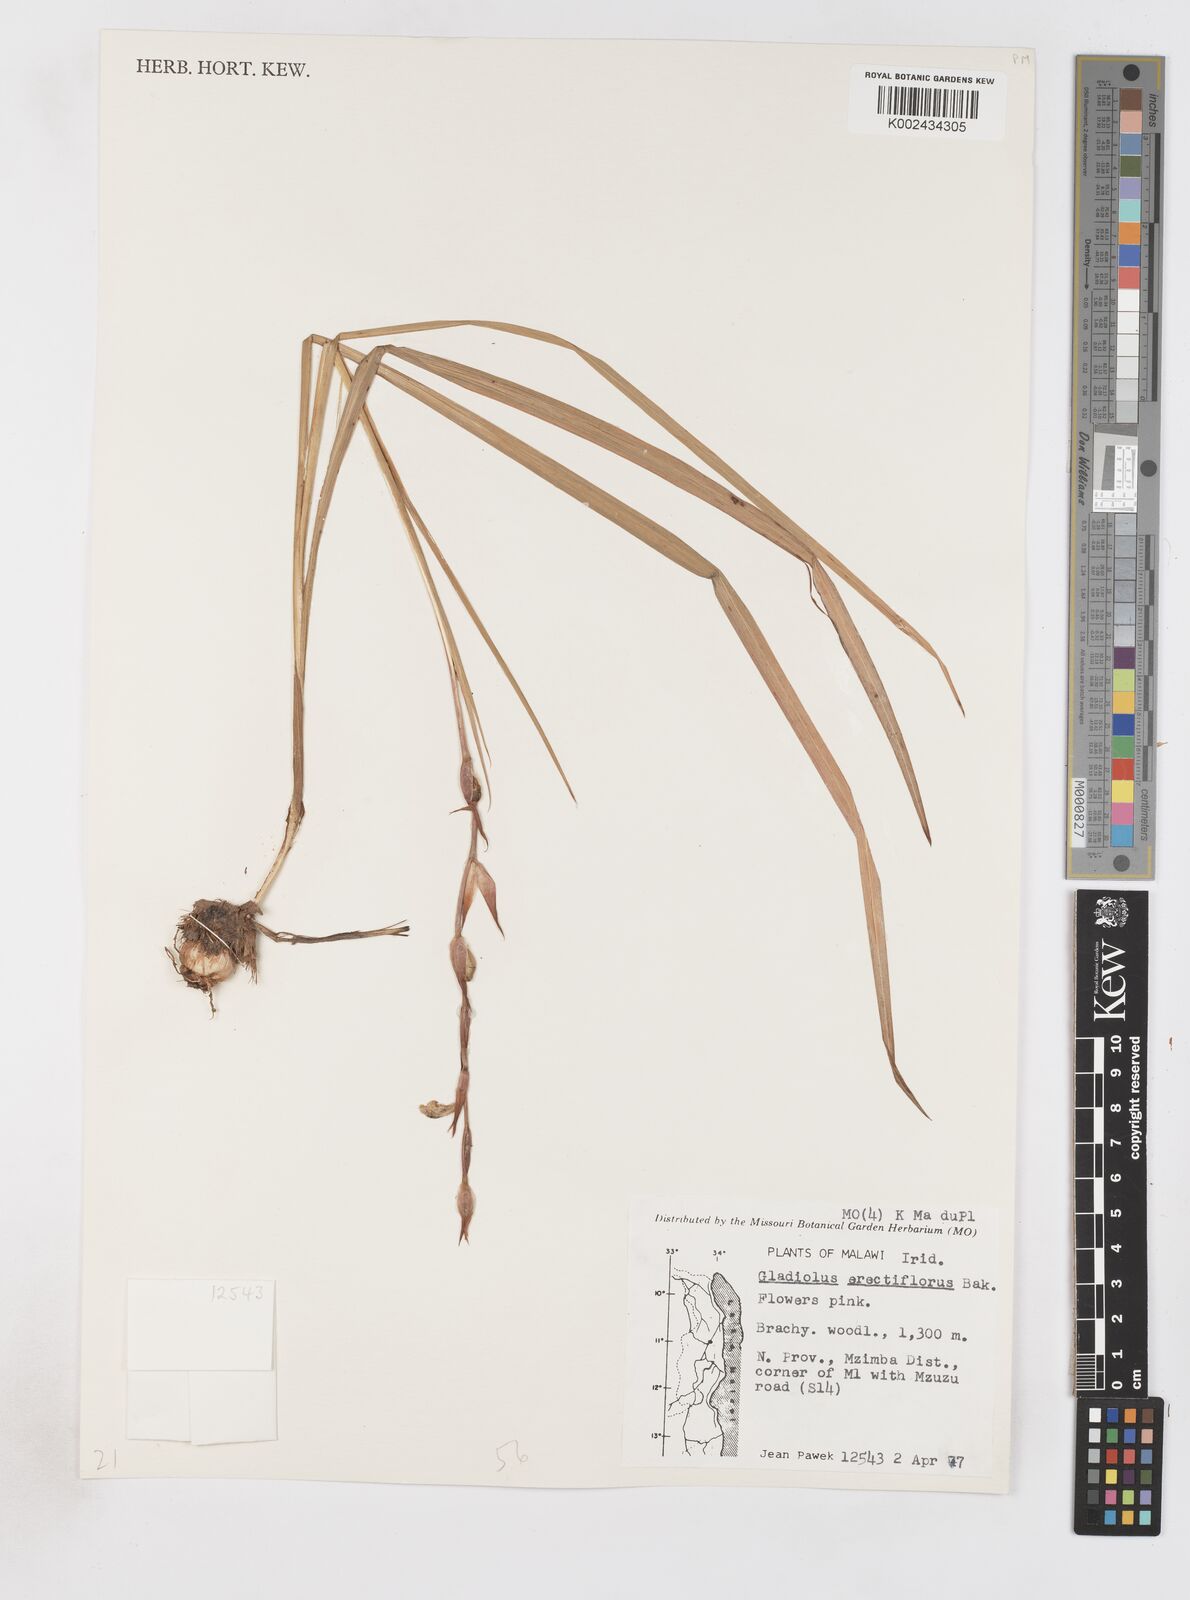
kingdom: Plantae
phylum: Tracheophyta
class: Liliopsida
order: Asparagales
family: Iridaceae
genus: Gladiolus
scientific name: Gladiolus erectiflorus
